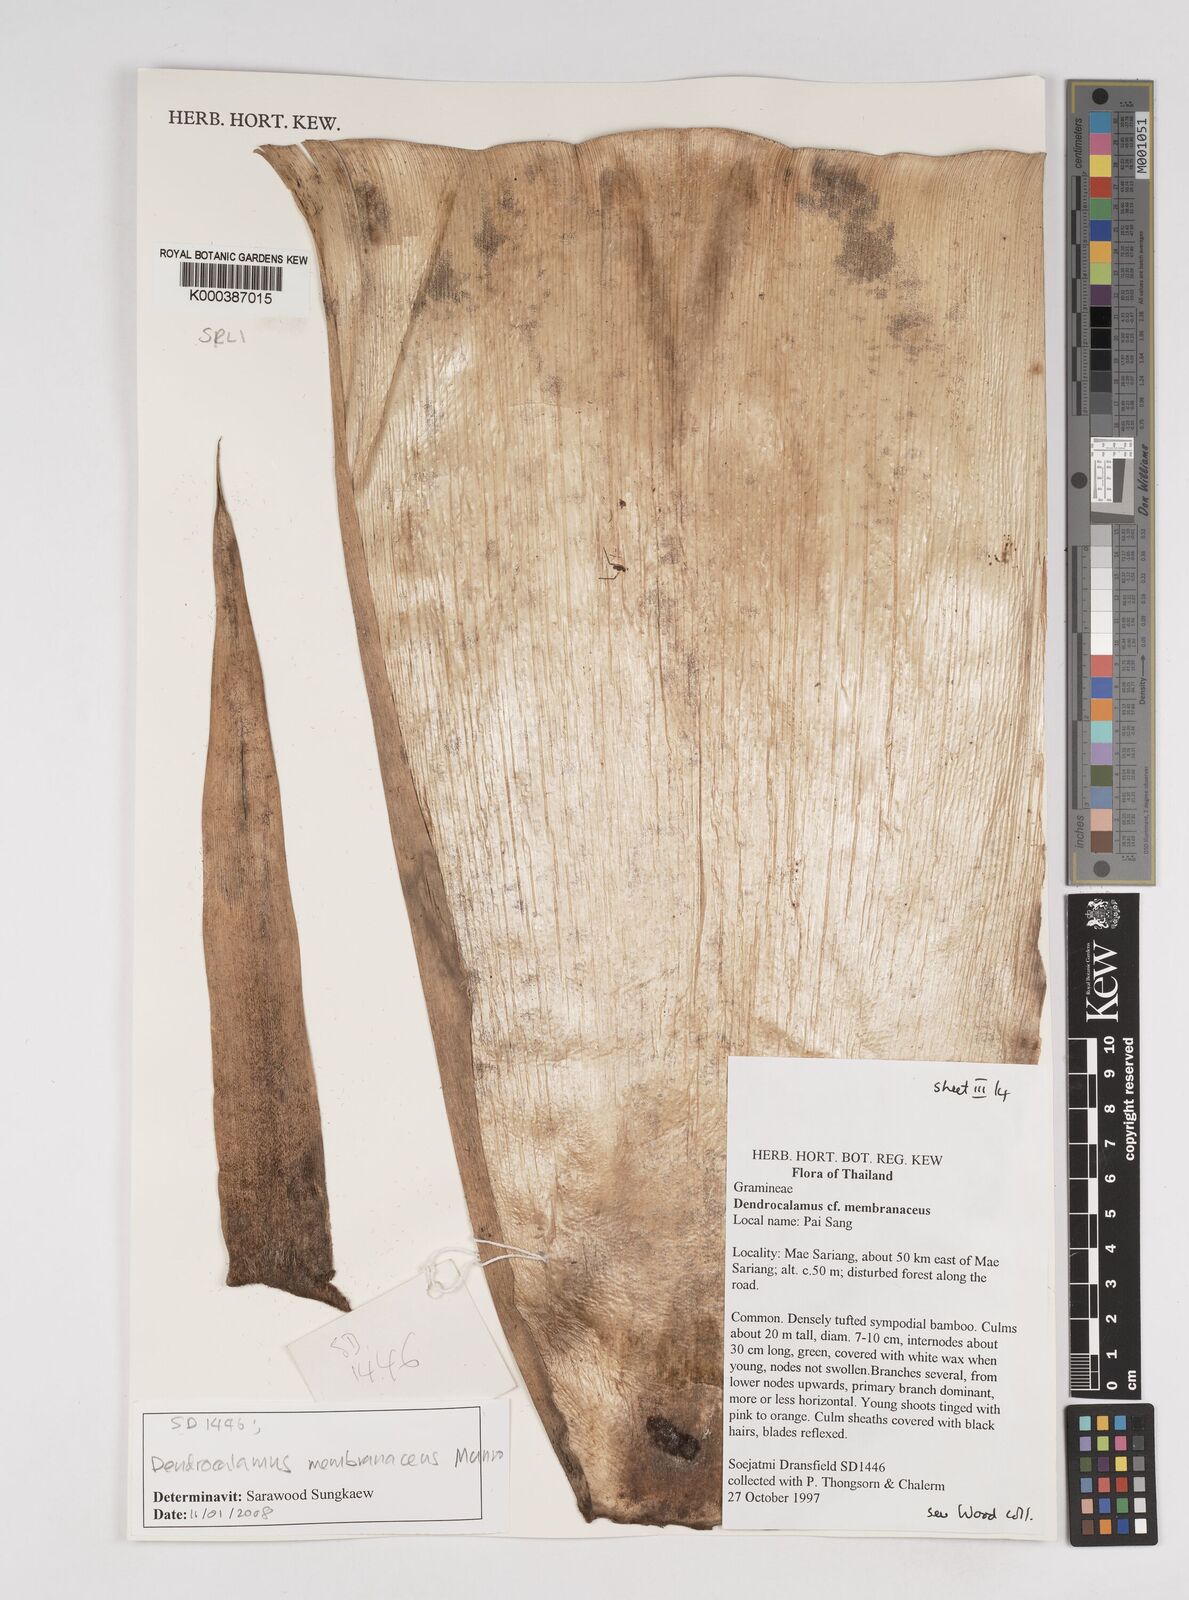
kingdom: Plantae
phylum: Tracheophyta
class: Liliopsida
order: Poales
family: Poaceae
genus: Dendrocalamus
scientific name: Dendrocalamus membranaceus
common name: White bamboo
